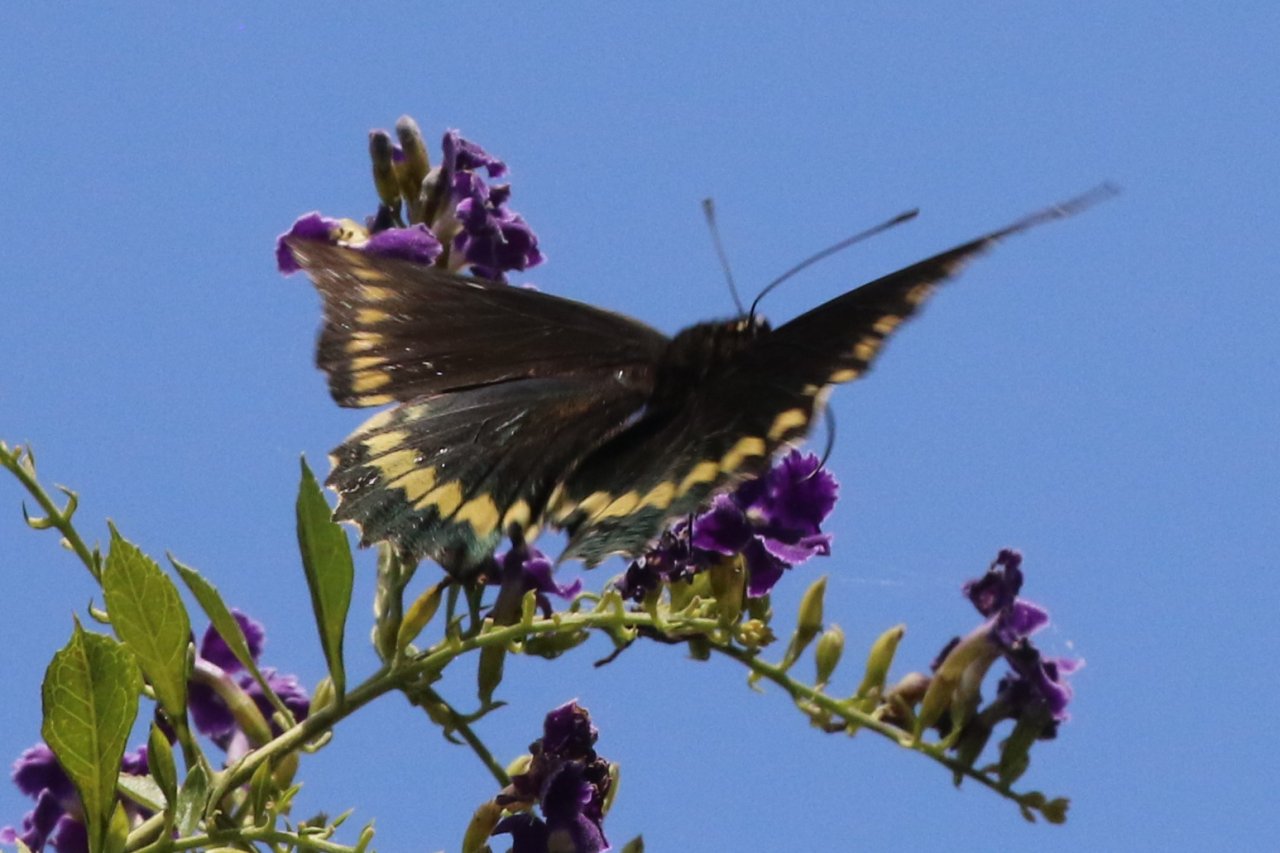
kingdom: Animalia
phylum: Arthropoda
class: Insecta
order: Lepidoptera
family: Papilionidae
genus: Battus
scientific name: Battus polydamas
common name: Polydamas Swallowtail
